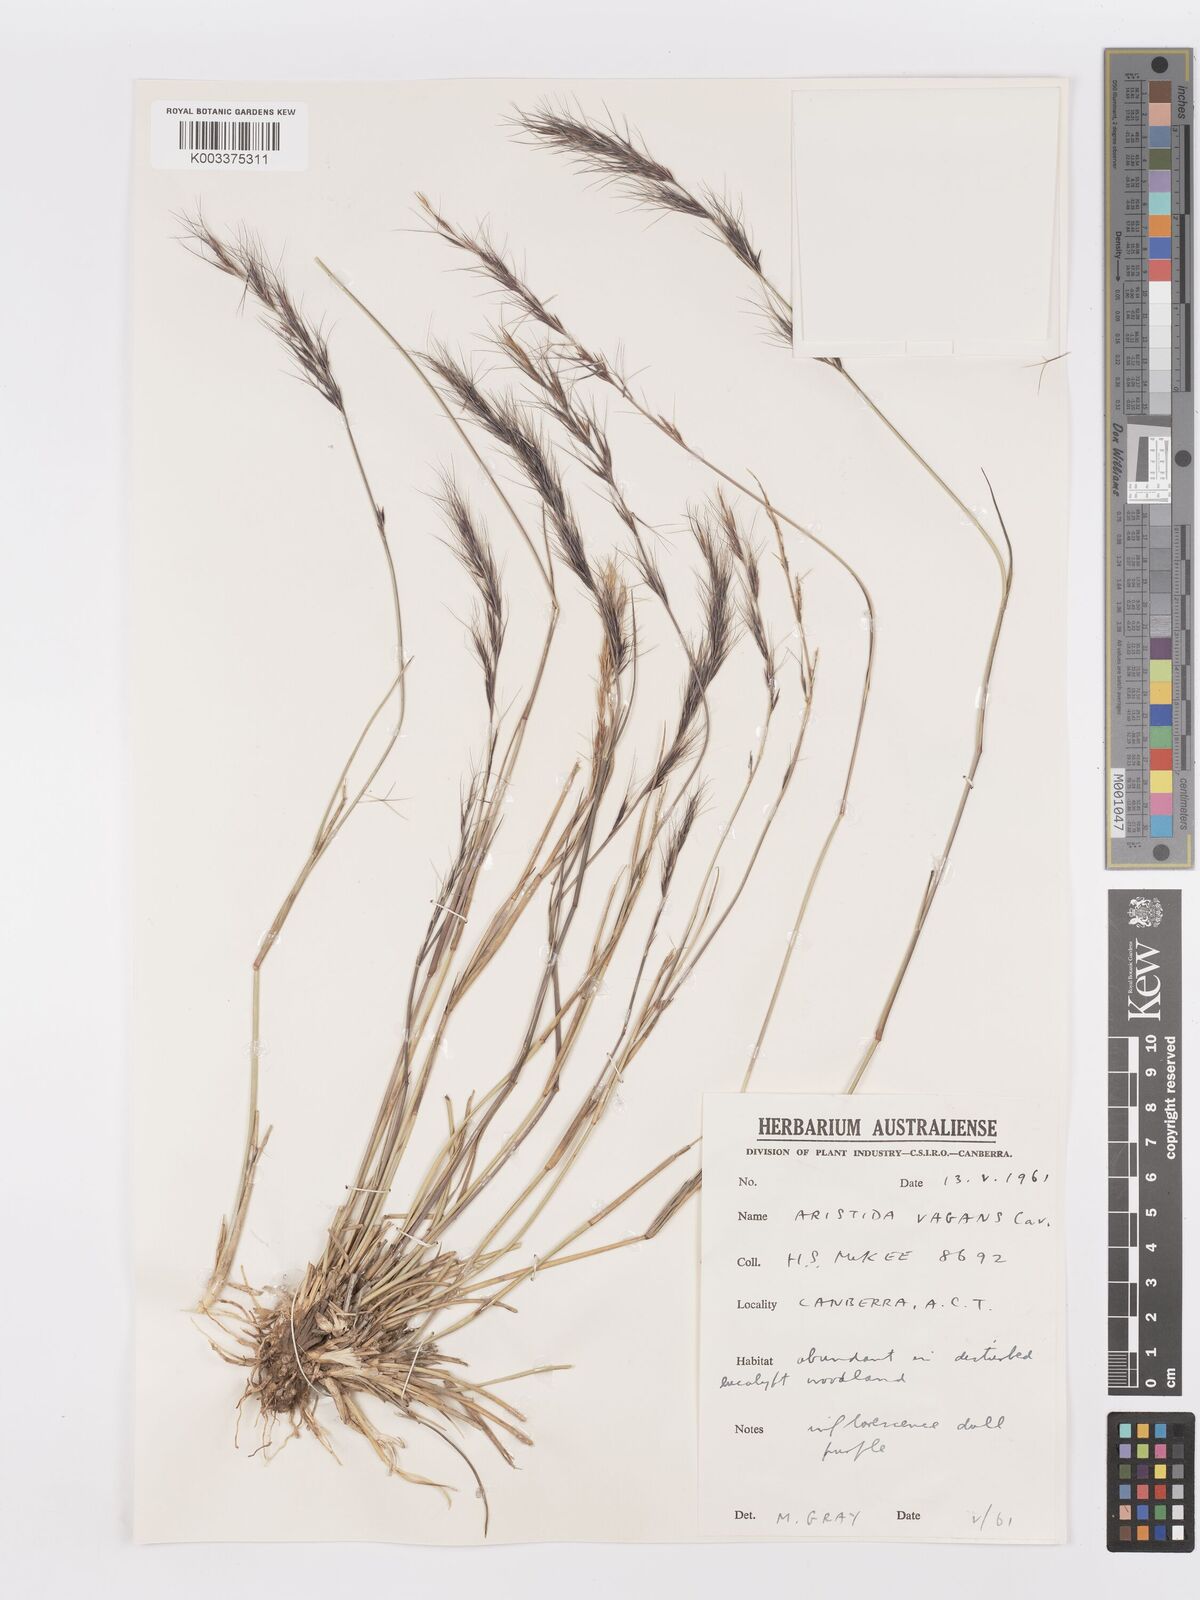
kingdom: Plantae
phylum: Tracheophyta
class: Liliopsida
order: Poales
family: Poaceae
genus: Aristida
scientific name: Aristida vagans
